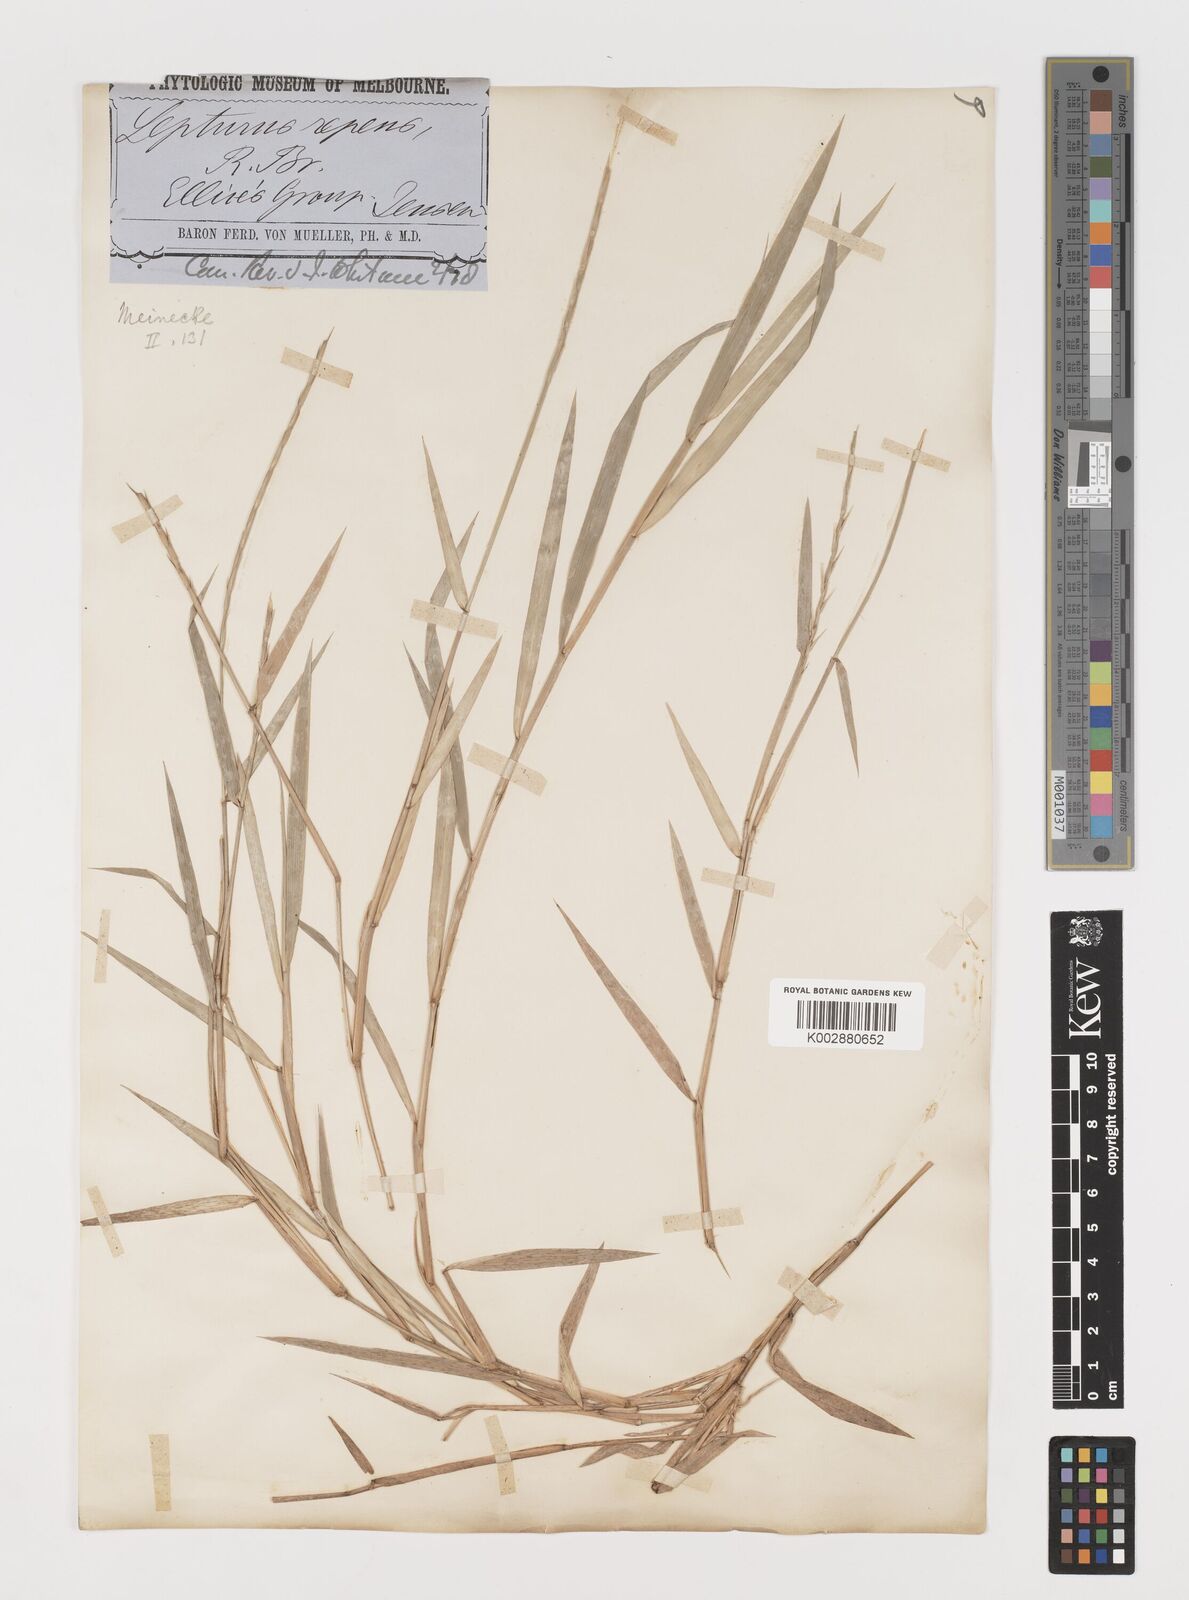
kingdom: Plantae
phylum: Tracheophyta
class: Liliopsida
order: Poales
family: Poaceae
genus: Lepturus
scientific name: Lepturus
